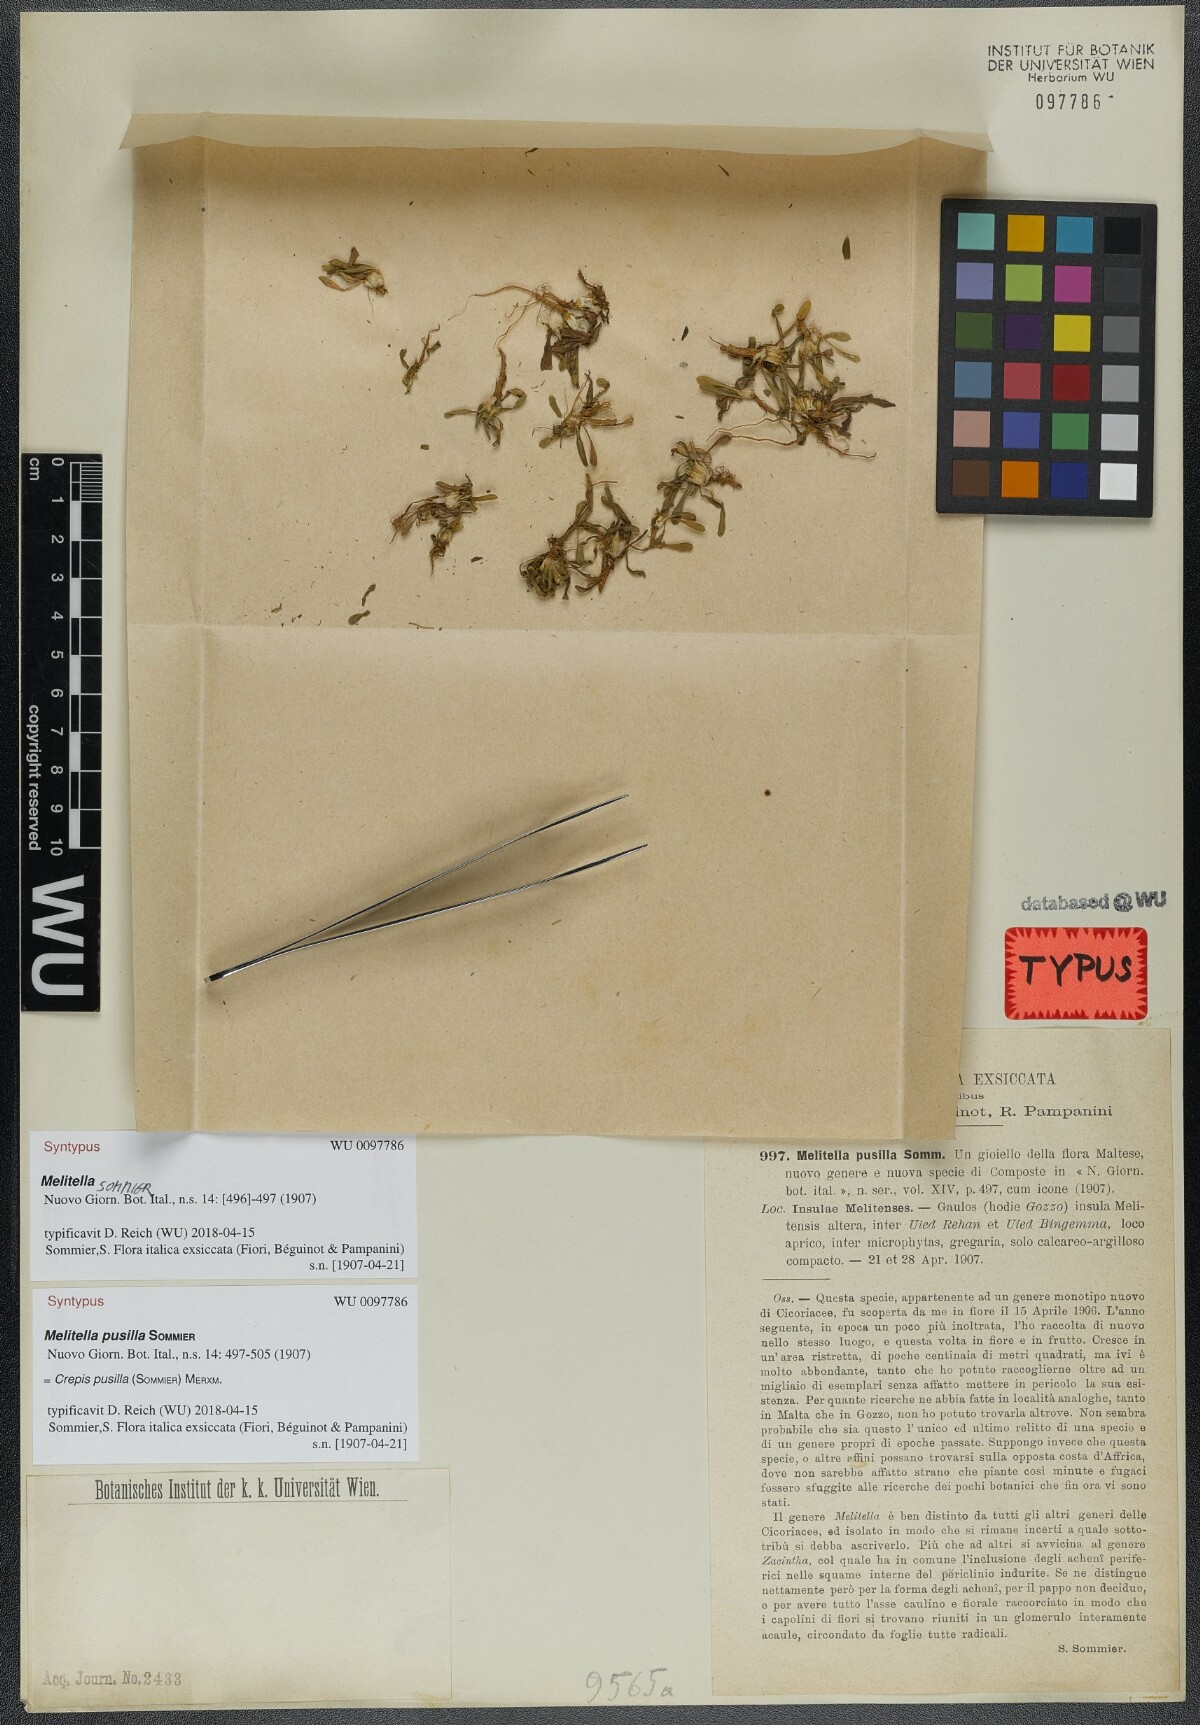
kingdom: Plantae
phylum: Tracheophyta
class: Magnoliopsida
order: Asterales
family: Asteraceae
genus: Crepis
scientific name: Crepis pusilla
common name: Dandelion crepis
